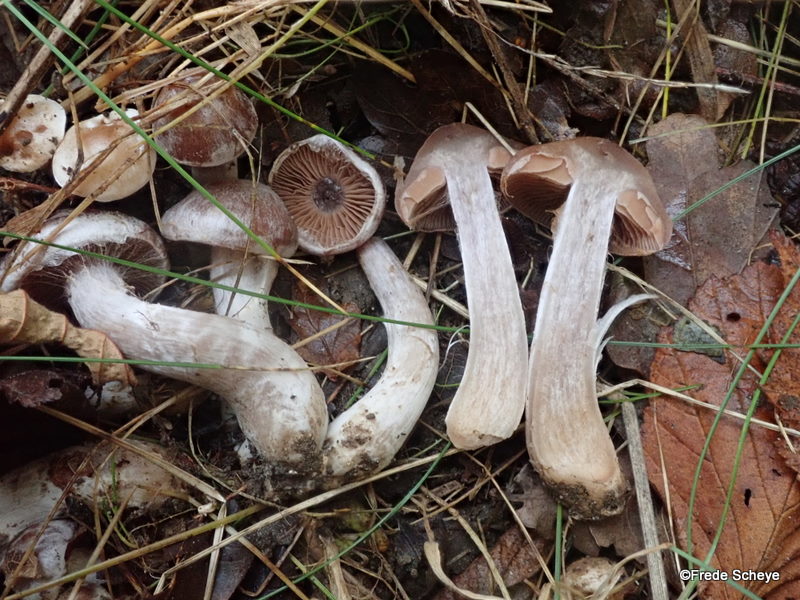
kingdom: Fungi
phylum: Basidiomycota
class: Agaricomycetes
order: Agaricales
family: Cortinariaceae
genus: Cortinarius
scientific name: Cortinarius saturninus
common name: brunviolet slørhat
